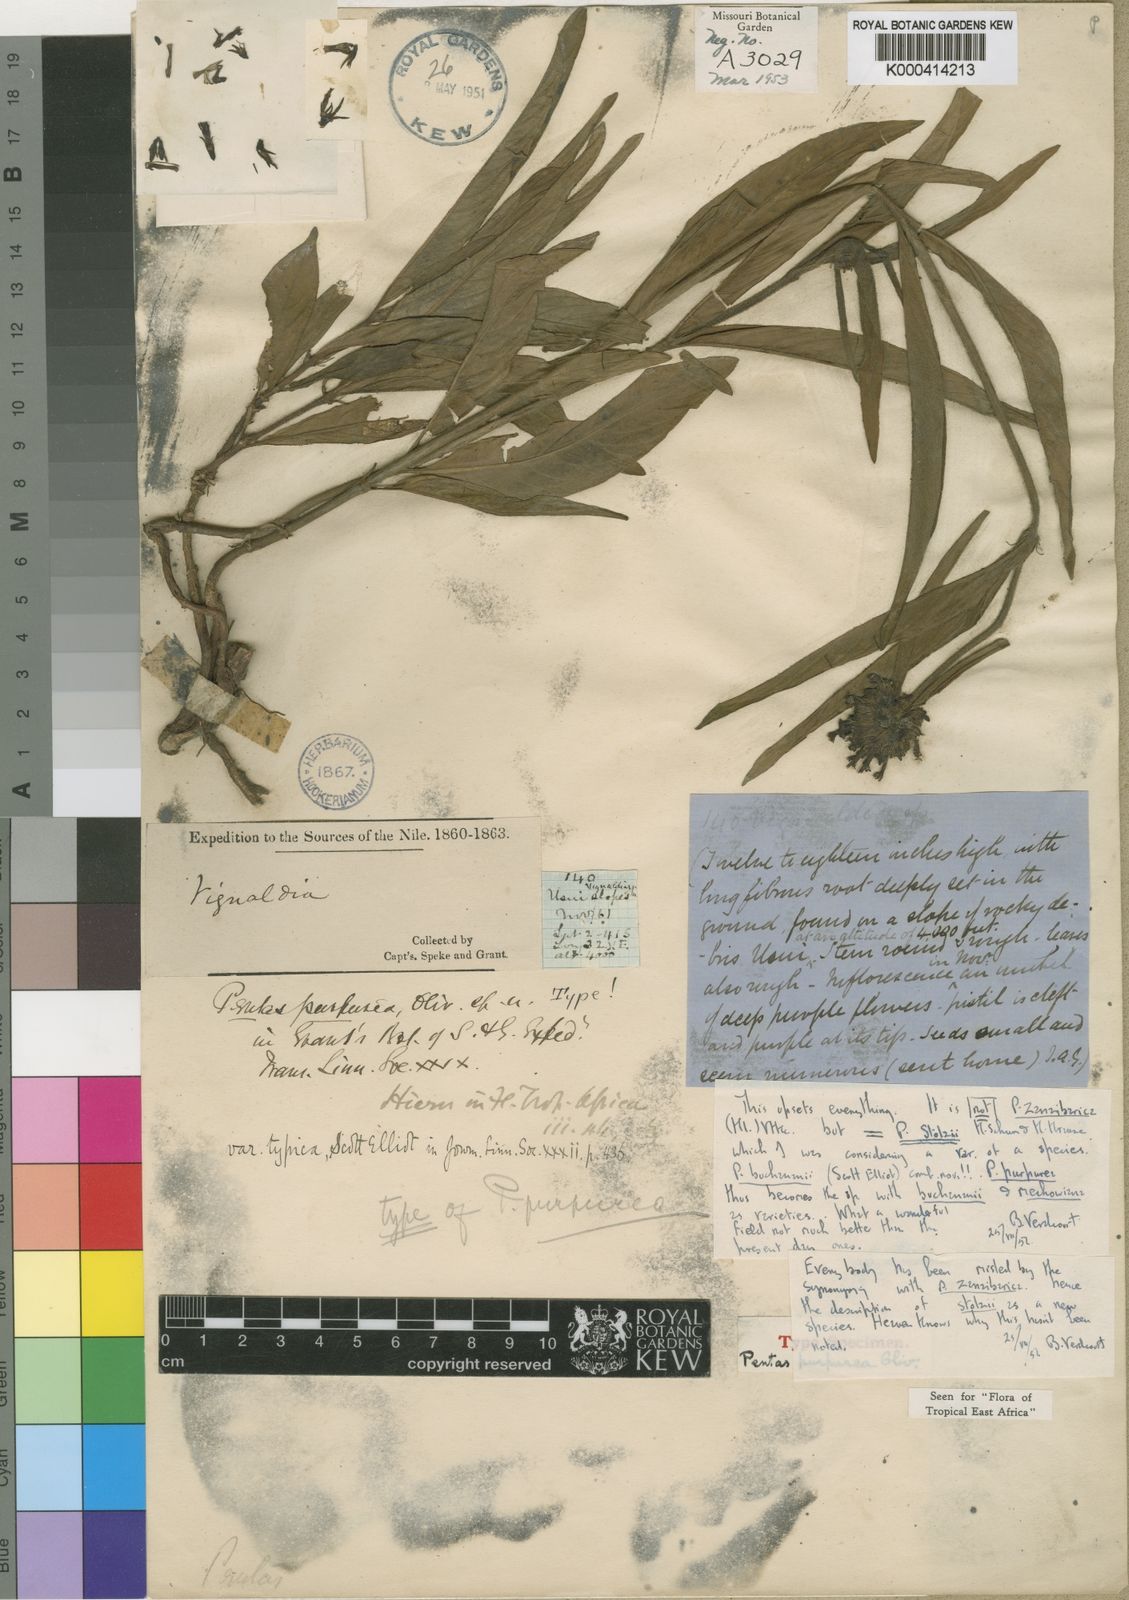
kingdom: Plantae
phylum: Tracheophyta
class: Magnoliopsida
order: Gentianales
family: Rubiaceae
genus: Pentas
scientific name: Pentas purpurea
